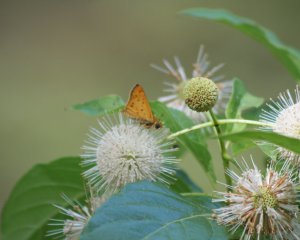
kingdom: Animalia
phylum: Arthropoda
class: Insecta
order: Lepidoptera
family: Hesperiidae
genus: Hylephila
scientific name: Hylephila phyleus
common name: Fiery Skipper
